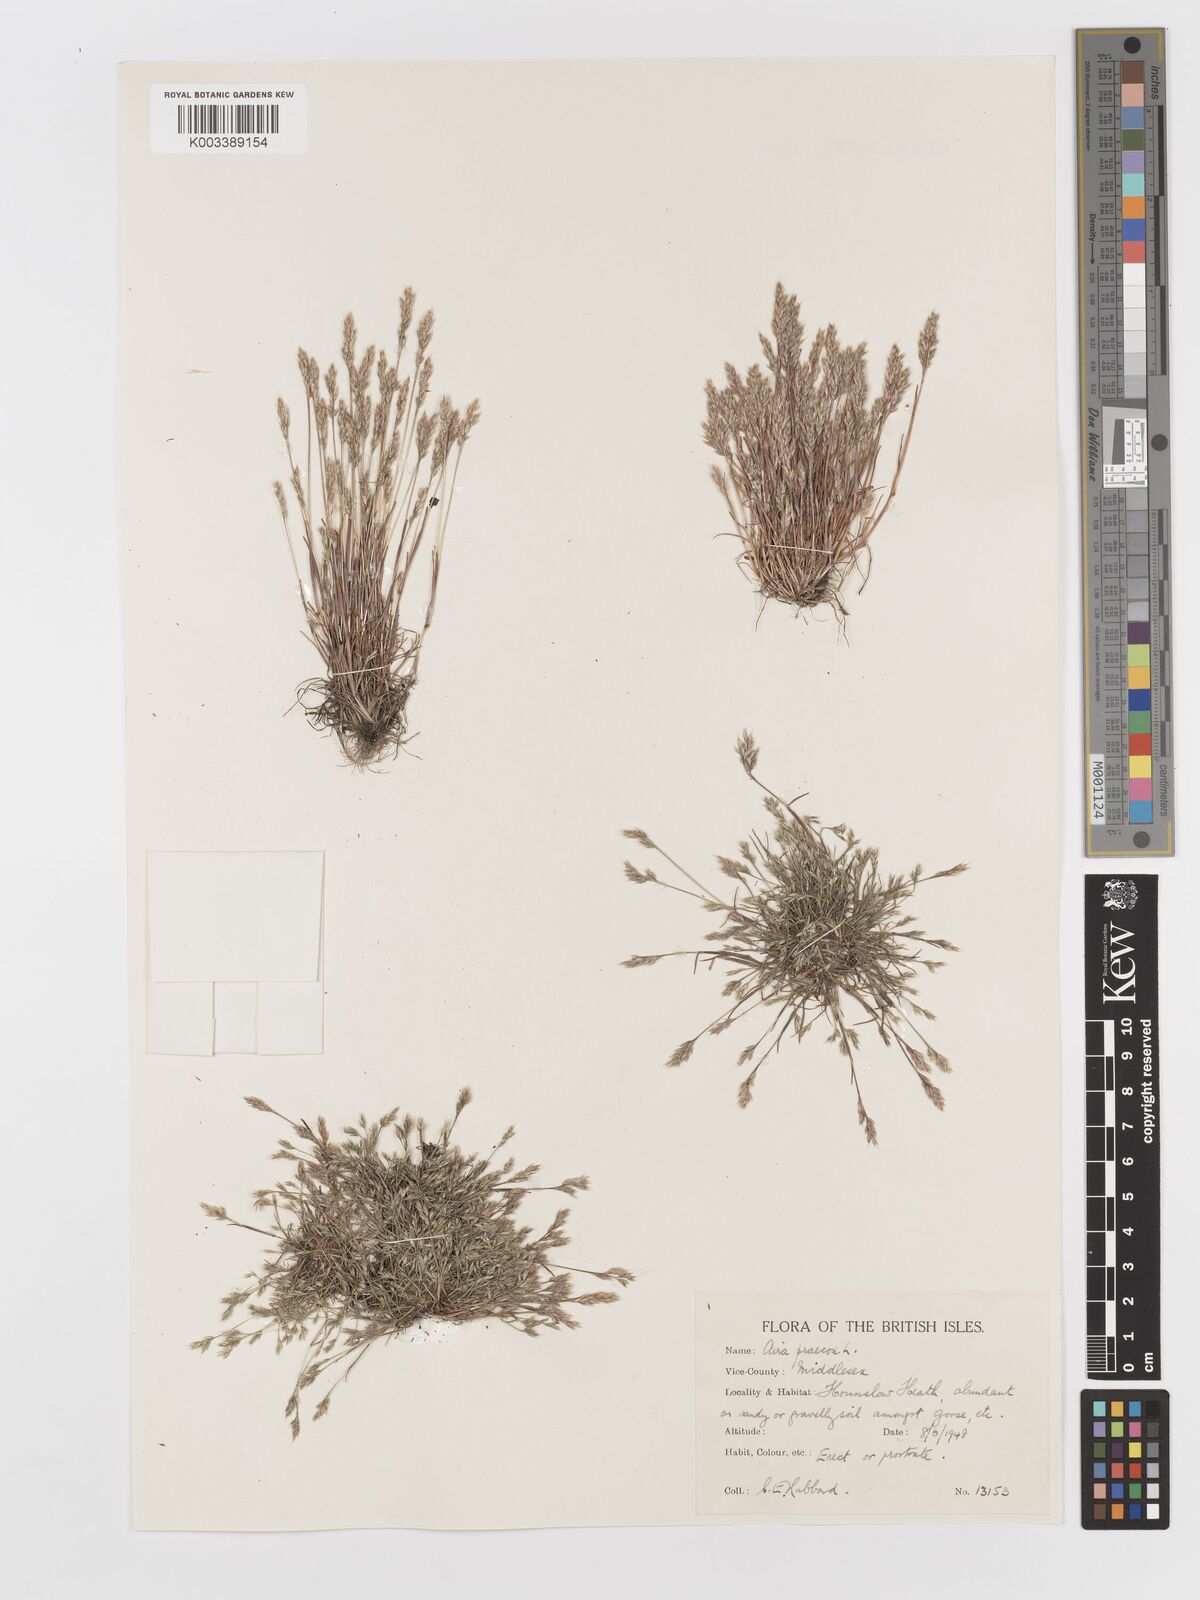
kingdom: Plantae
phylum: Tracheophyta
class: Liliopsida
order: Poales
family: Poaceae
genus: Aira
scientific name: Aira praecox
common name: Early hair-grass
